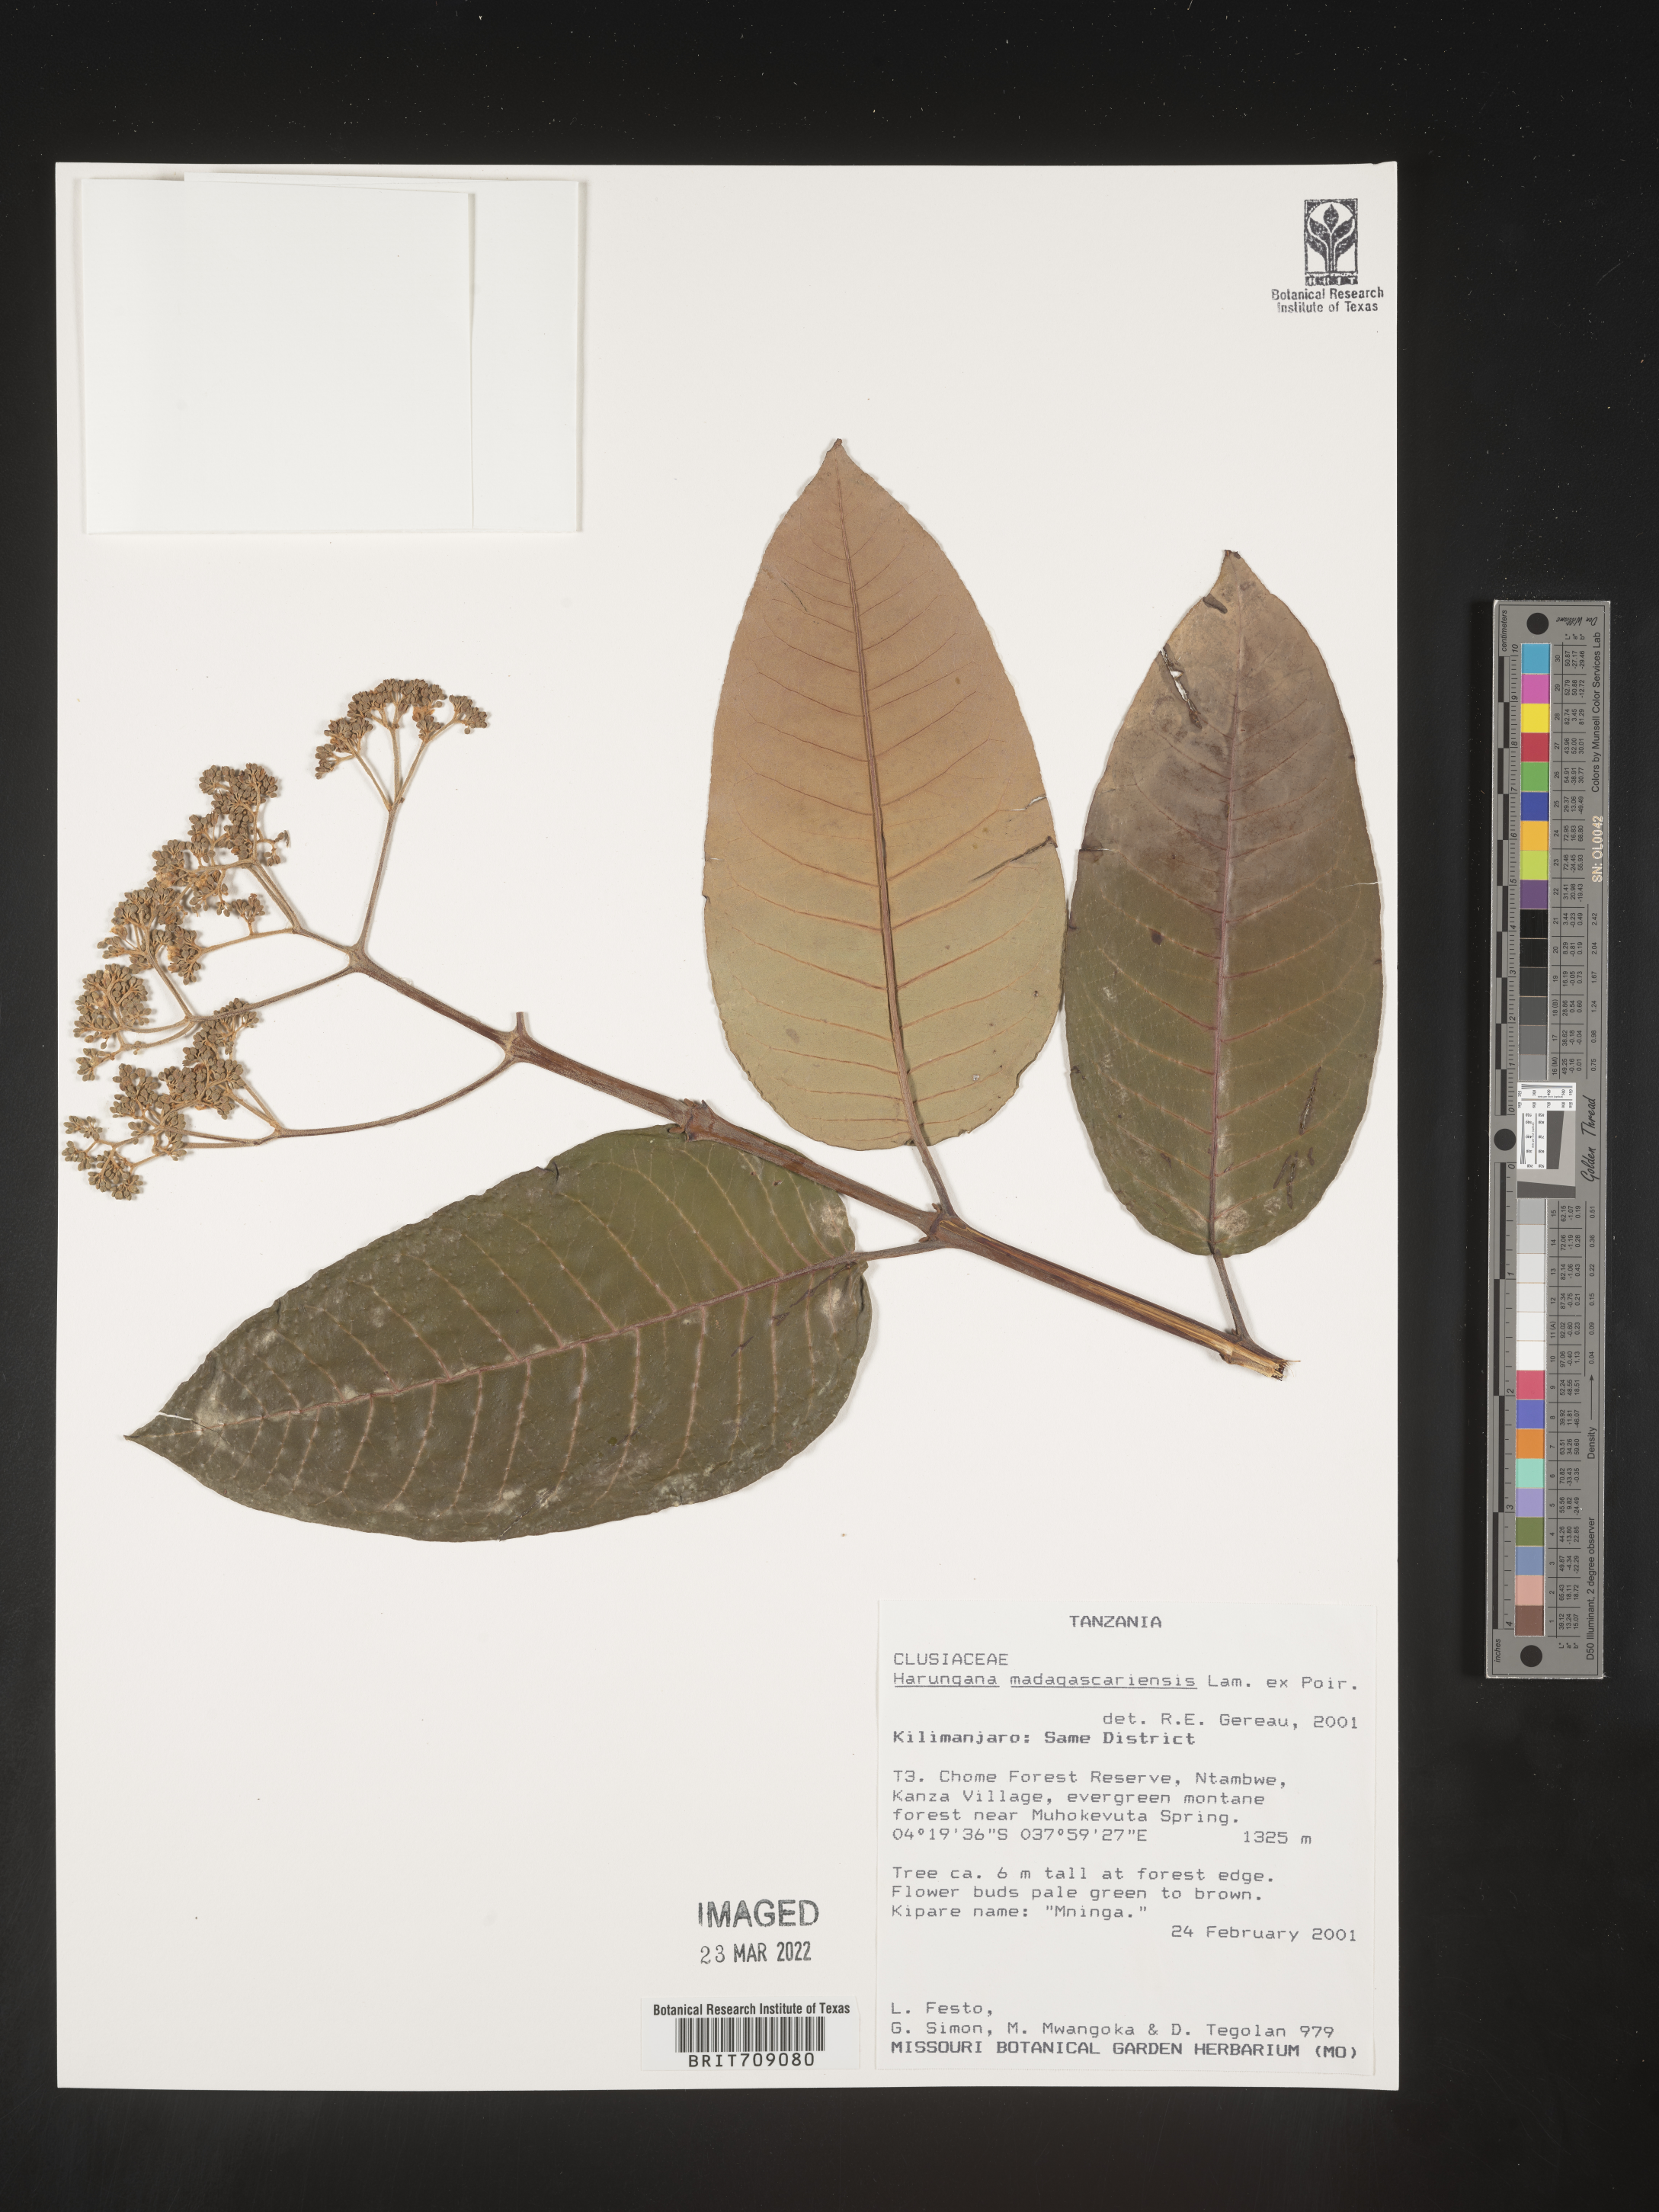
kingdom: Plantae
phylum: Tracheophyta
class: Magnoliopsida
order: Malpighiales
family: Hypericaceae
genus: Harungana
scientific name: Harungana
